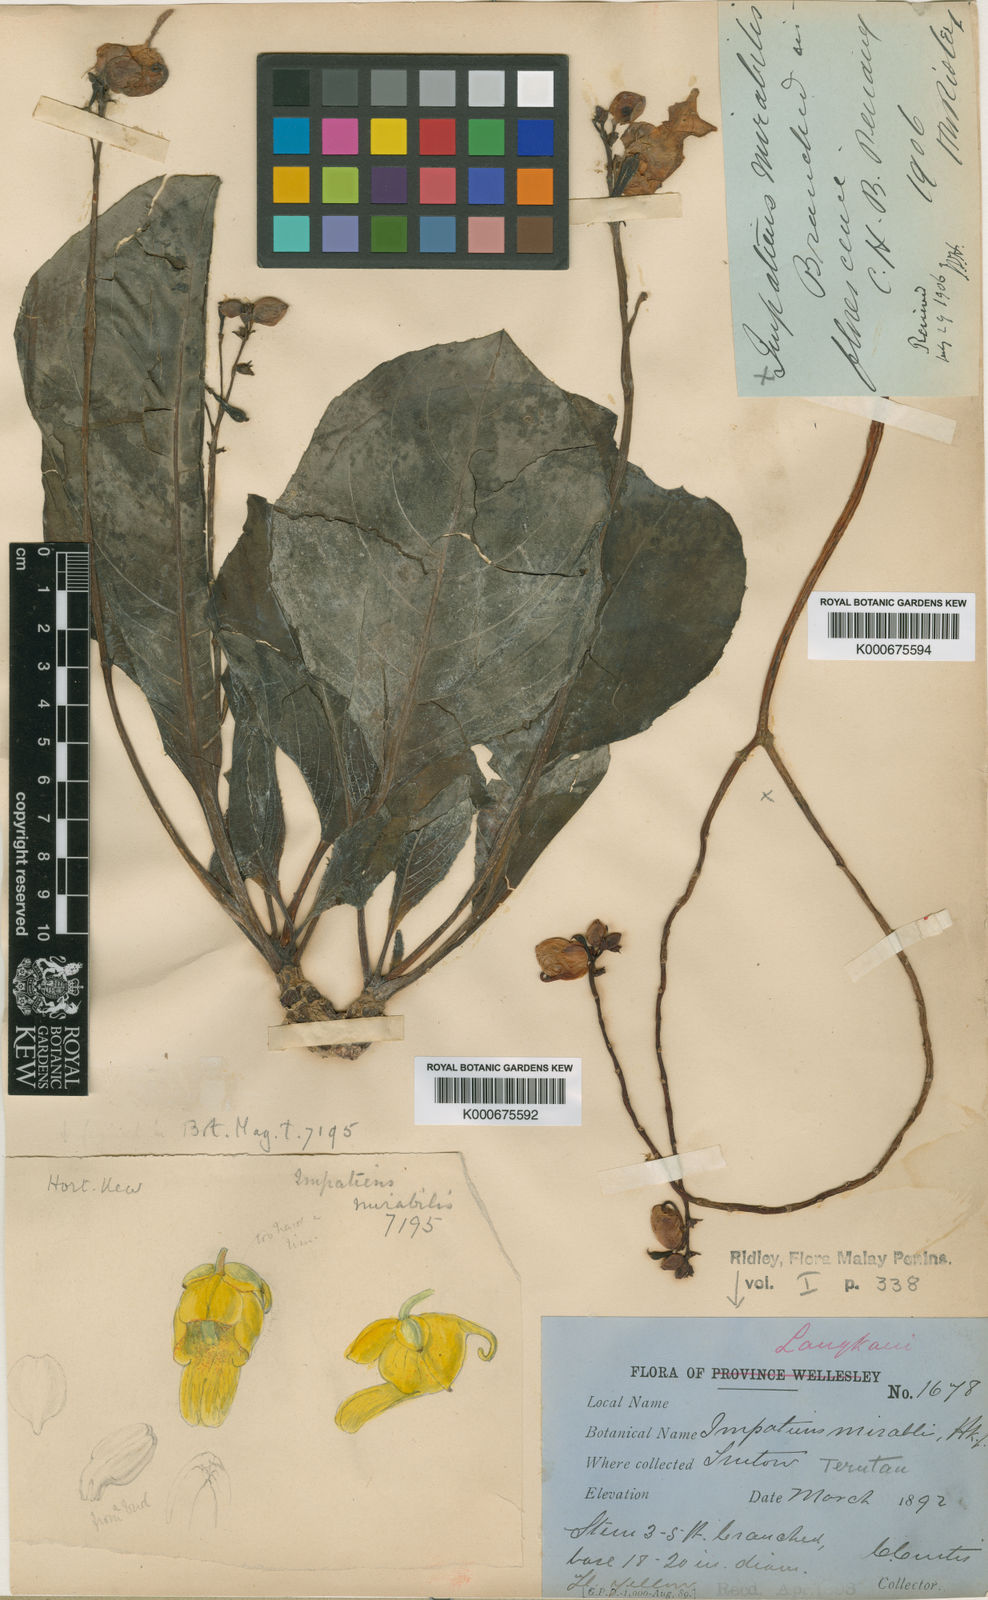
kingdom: Plantae
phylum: Tracheophyta
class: Magnoliopsida
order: Ericales
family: Balsaminaceae
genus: Impatiens
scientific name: Impatiens mirabilis
